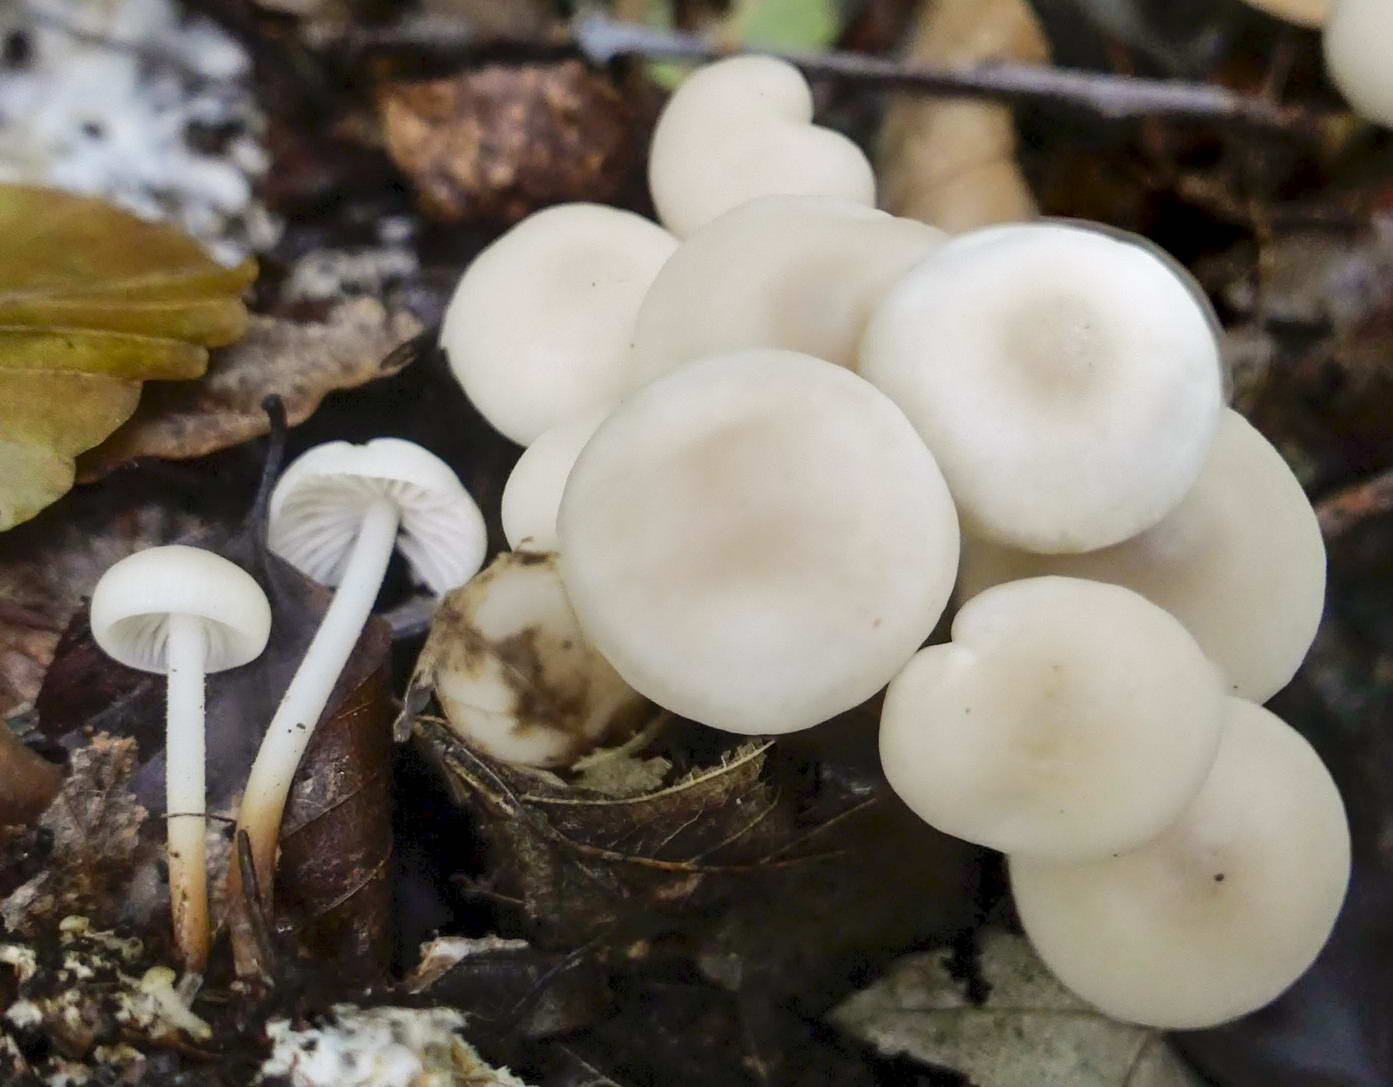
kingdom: Fungi
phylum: Basidiomycota
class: Agaricomycetes
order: Agaricales
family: Marasmiaceae
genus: Marasmius
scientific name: Marasmius wynneae
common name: hvælvet bruskhat
